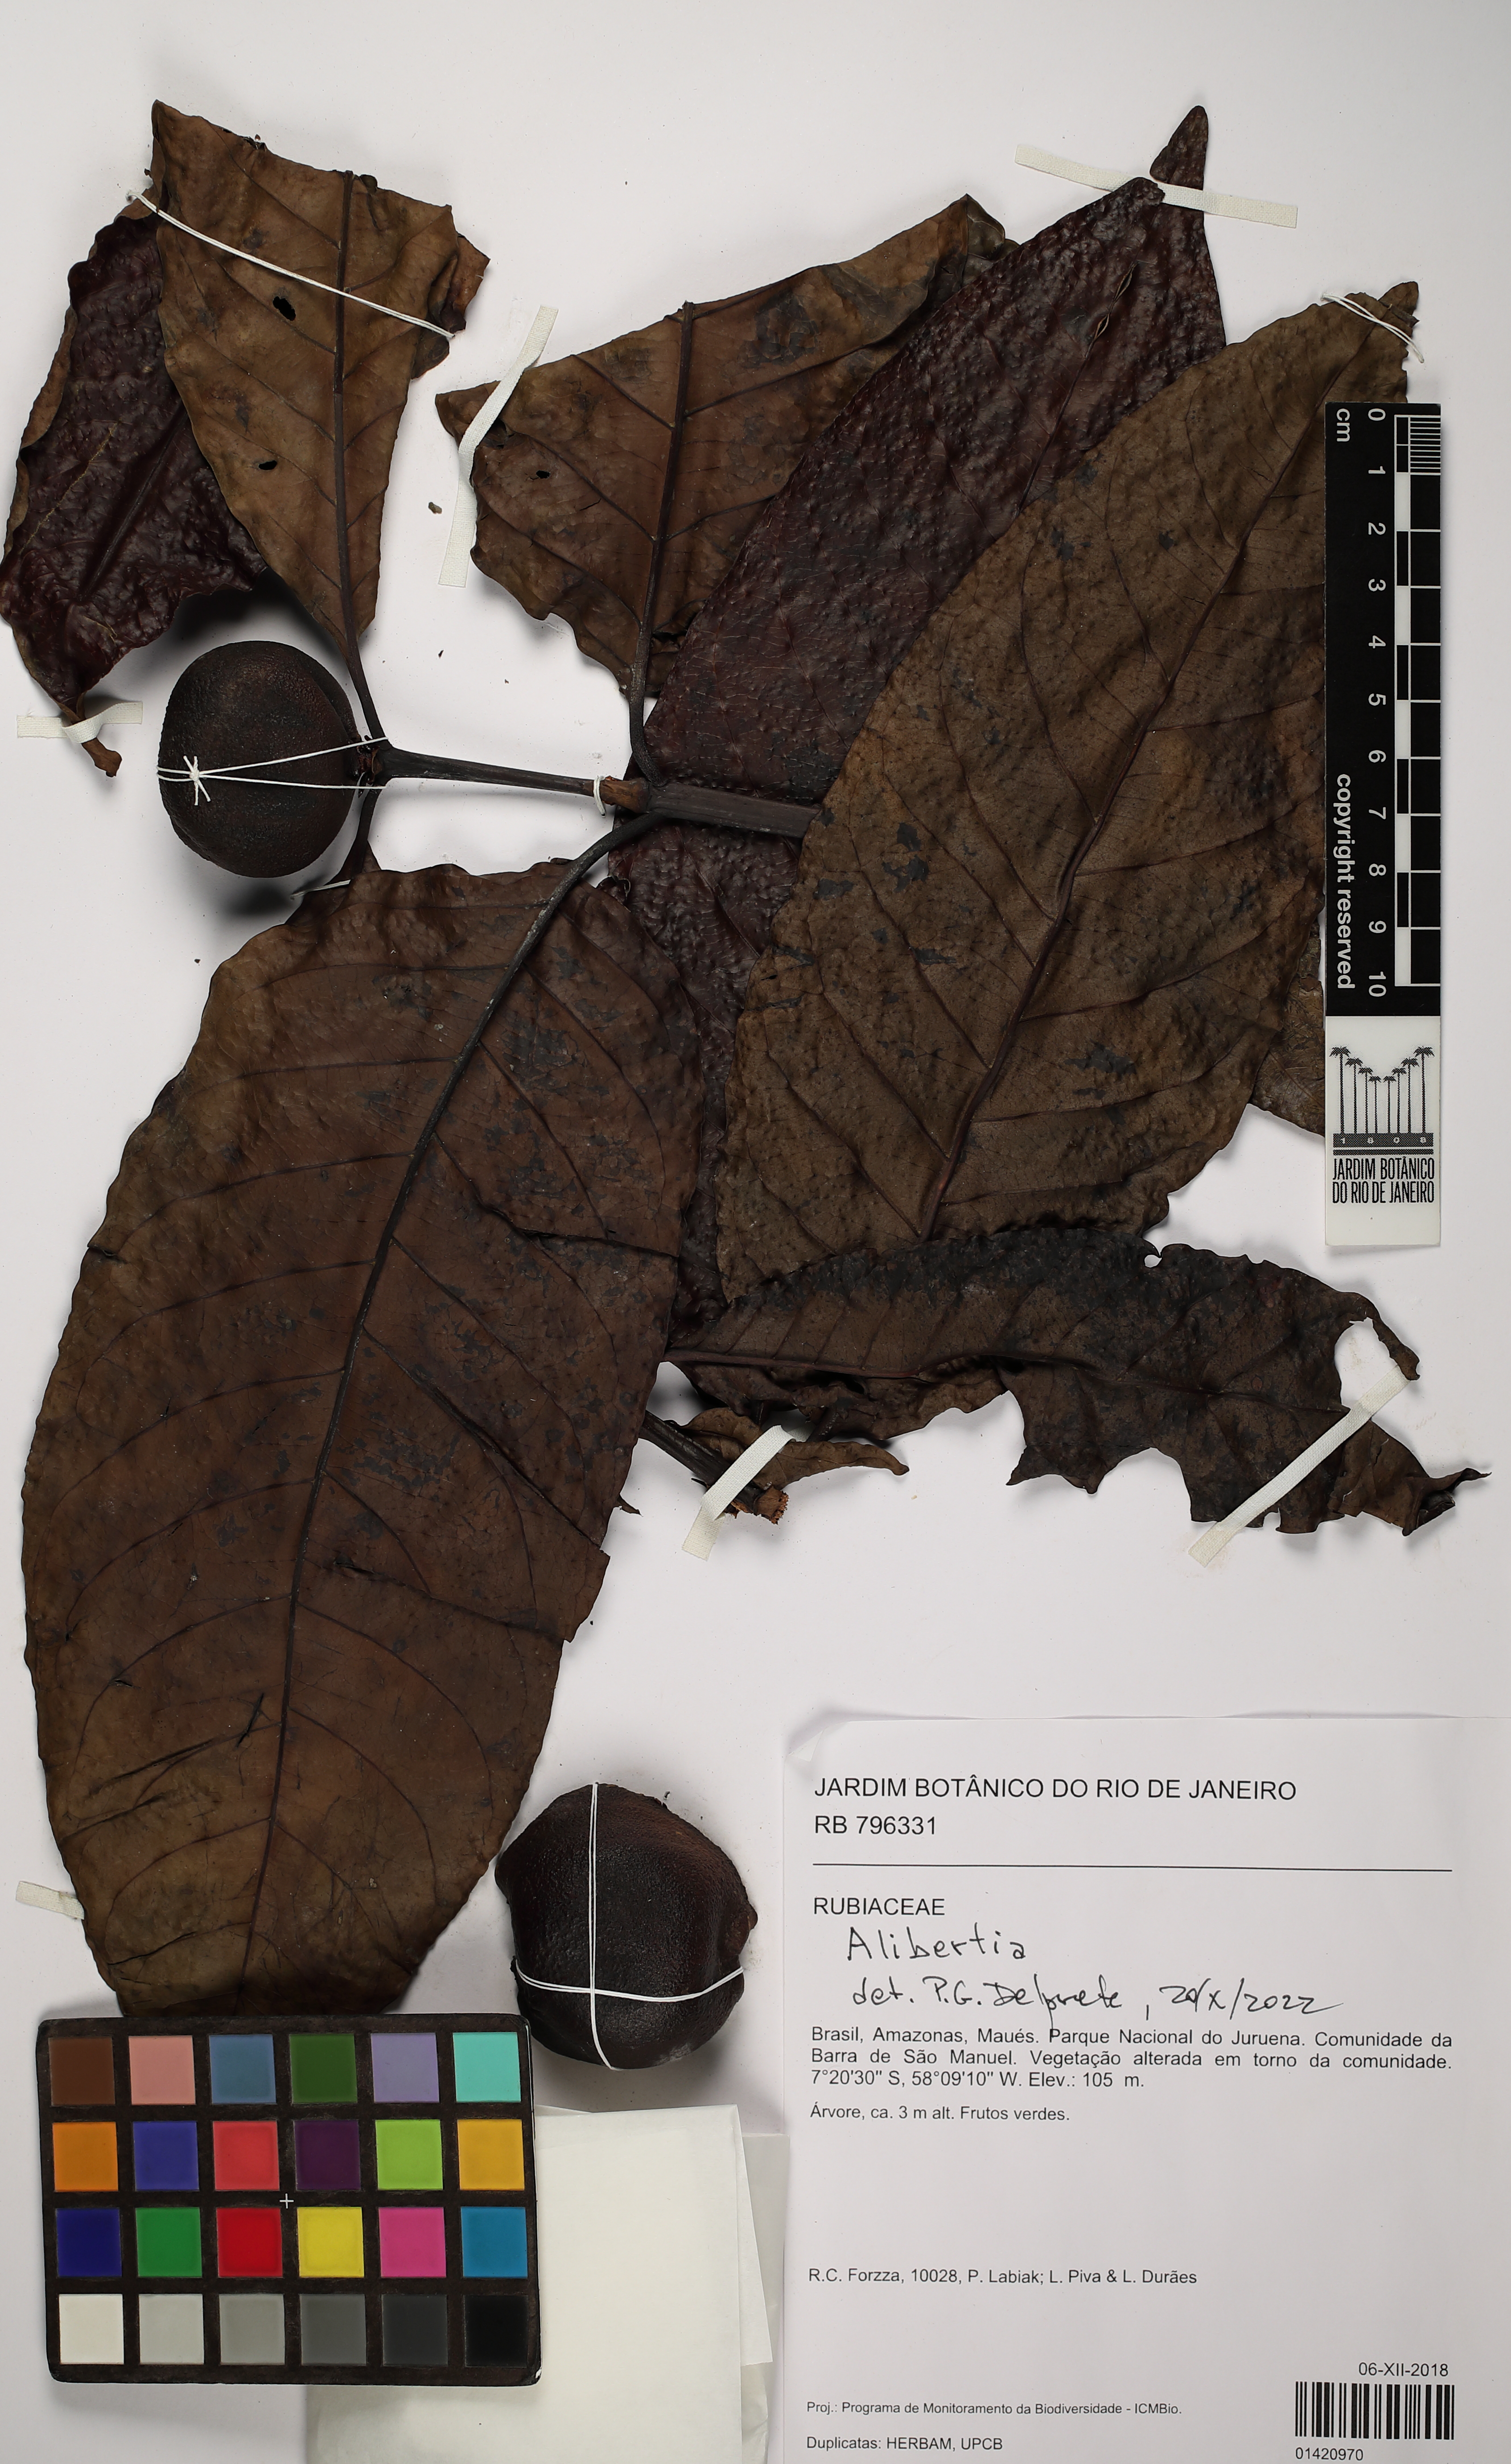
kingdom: Plantae
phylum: Tracheophyta
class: Magnoliopsida
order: Gentianales
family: Rubiaceae
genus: Alibertia
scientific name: Alibertia
